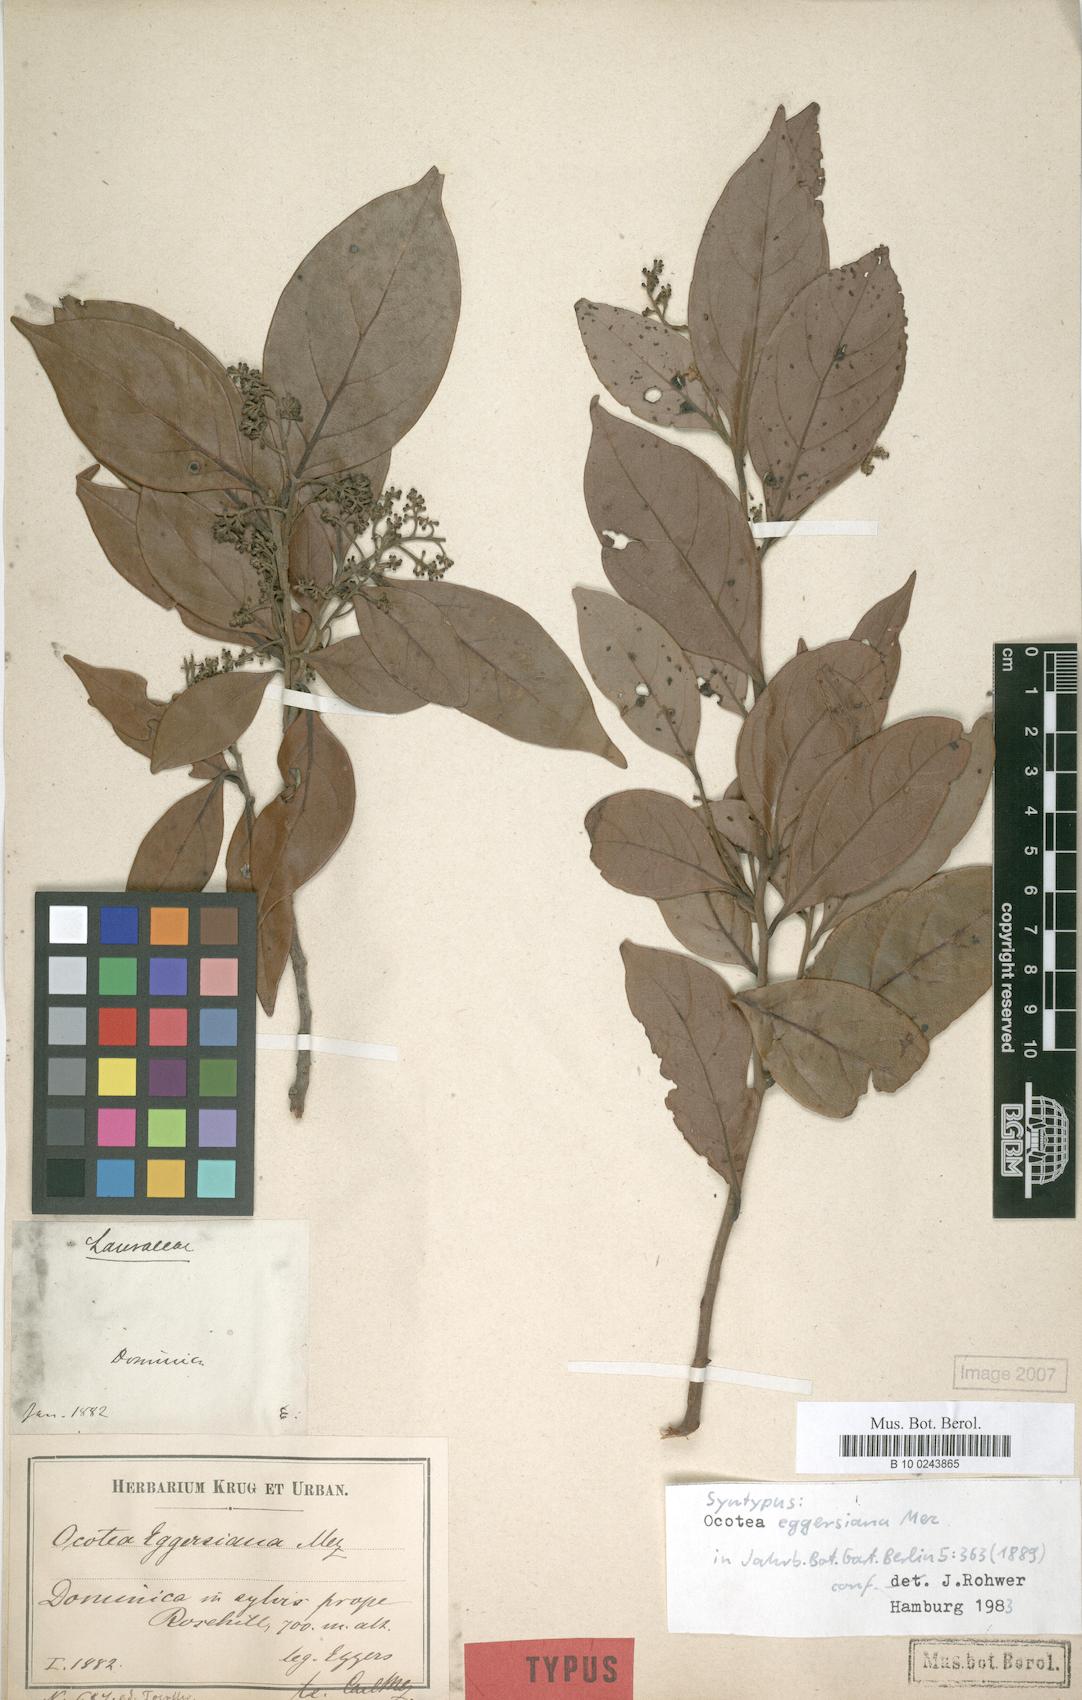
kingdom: Plantae
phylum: Tracheophyta
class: Magnoliopsida
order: Laurales
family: Lauraceae
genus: Ocotea
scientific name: Ocotea eggersiana
